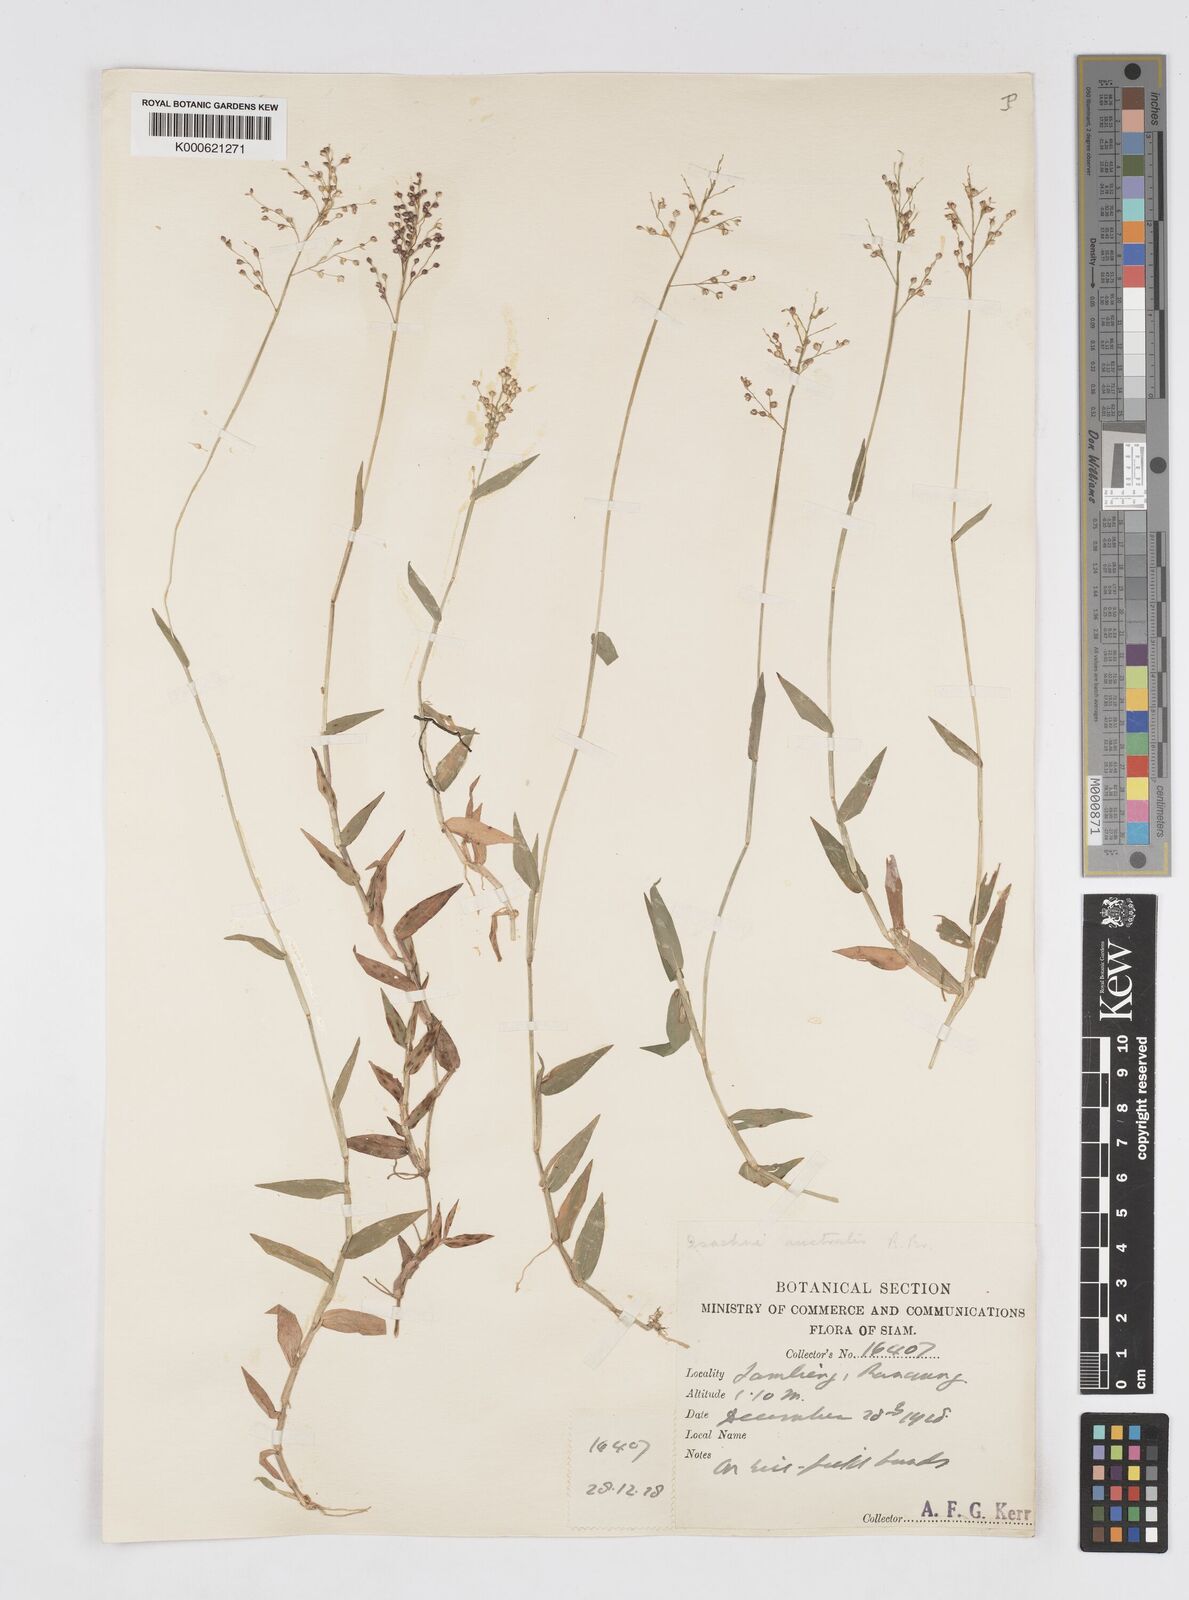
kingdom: Plantae
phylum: Tracheophyta
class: Liliopsida
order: Poales
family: Poaceae
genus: Isachne
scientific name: Isachne globosa
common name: Swamp millet
